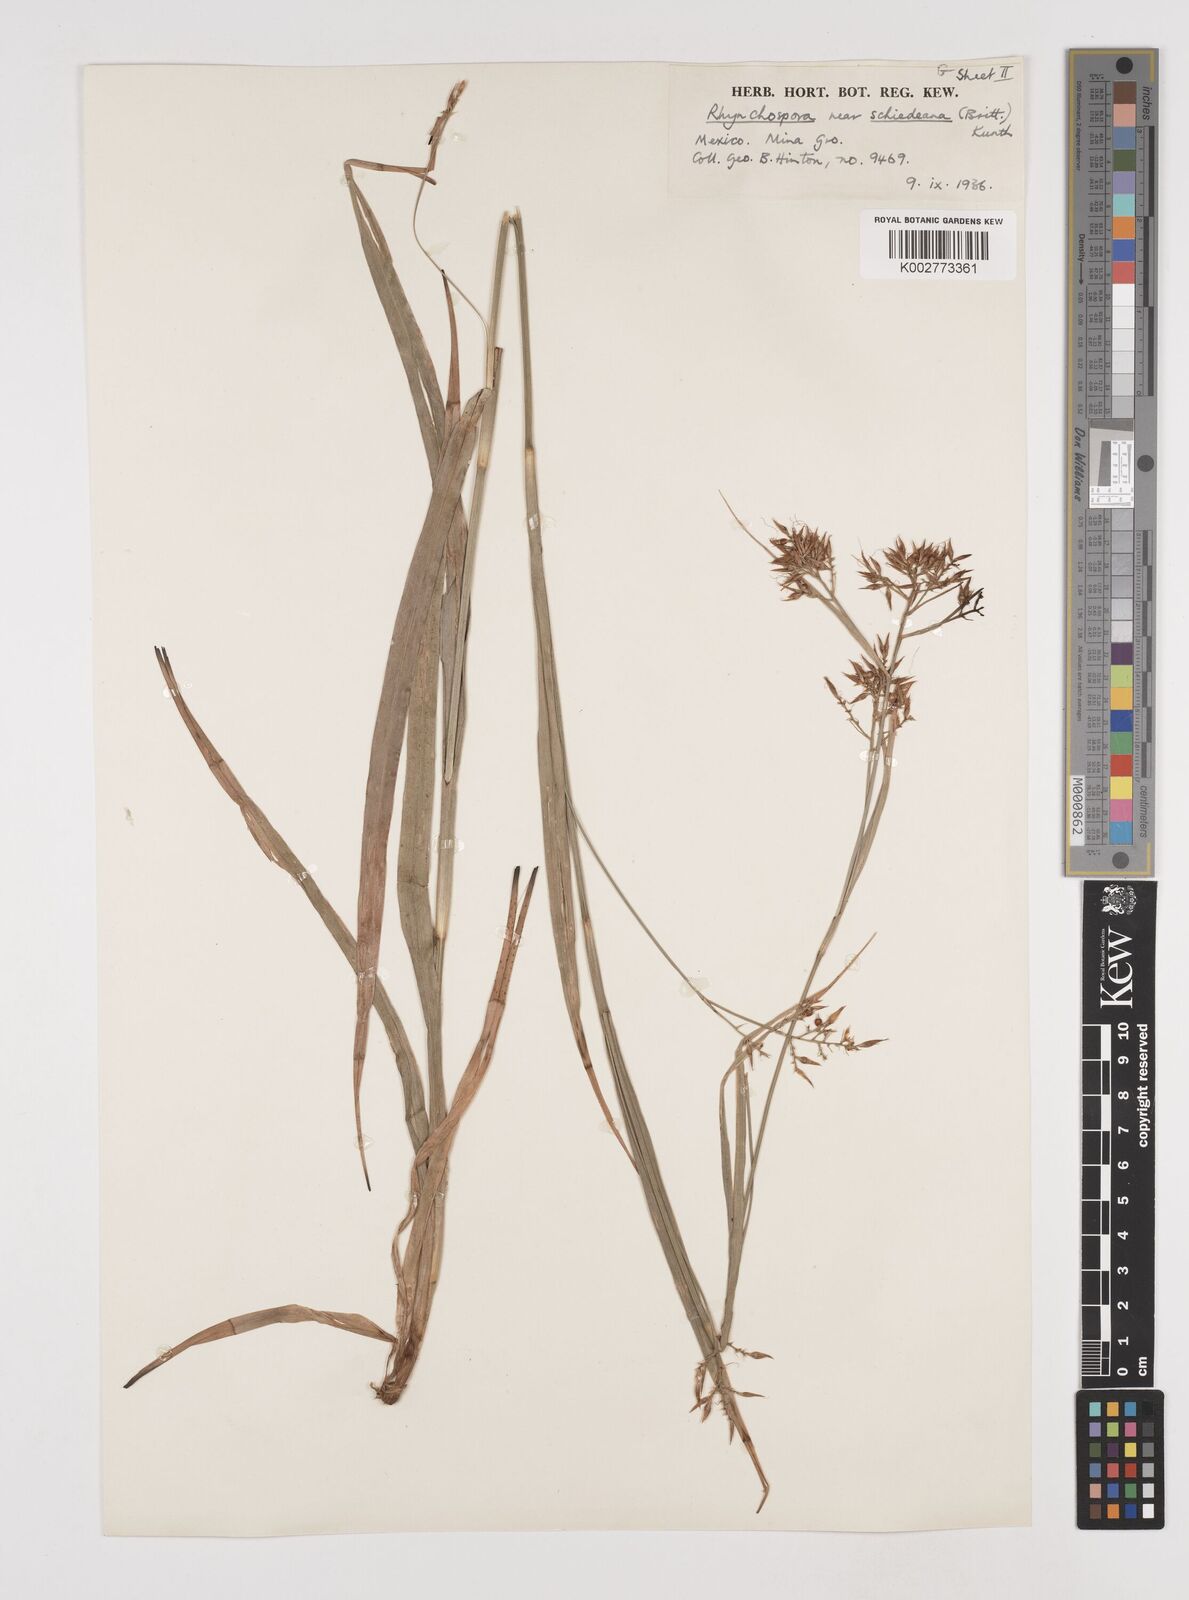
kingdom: Plantae
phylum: Tracheophyta
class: Liliopsida
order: Poales
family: Cyperaceae
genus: Rhynchospora
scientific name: Rhynchospora schiedeana
